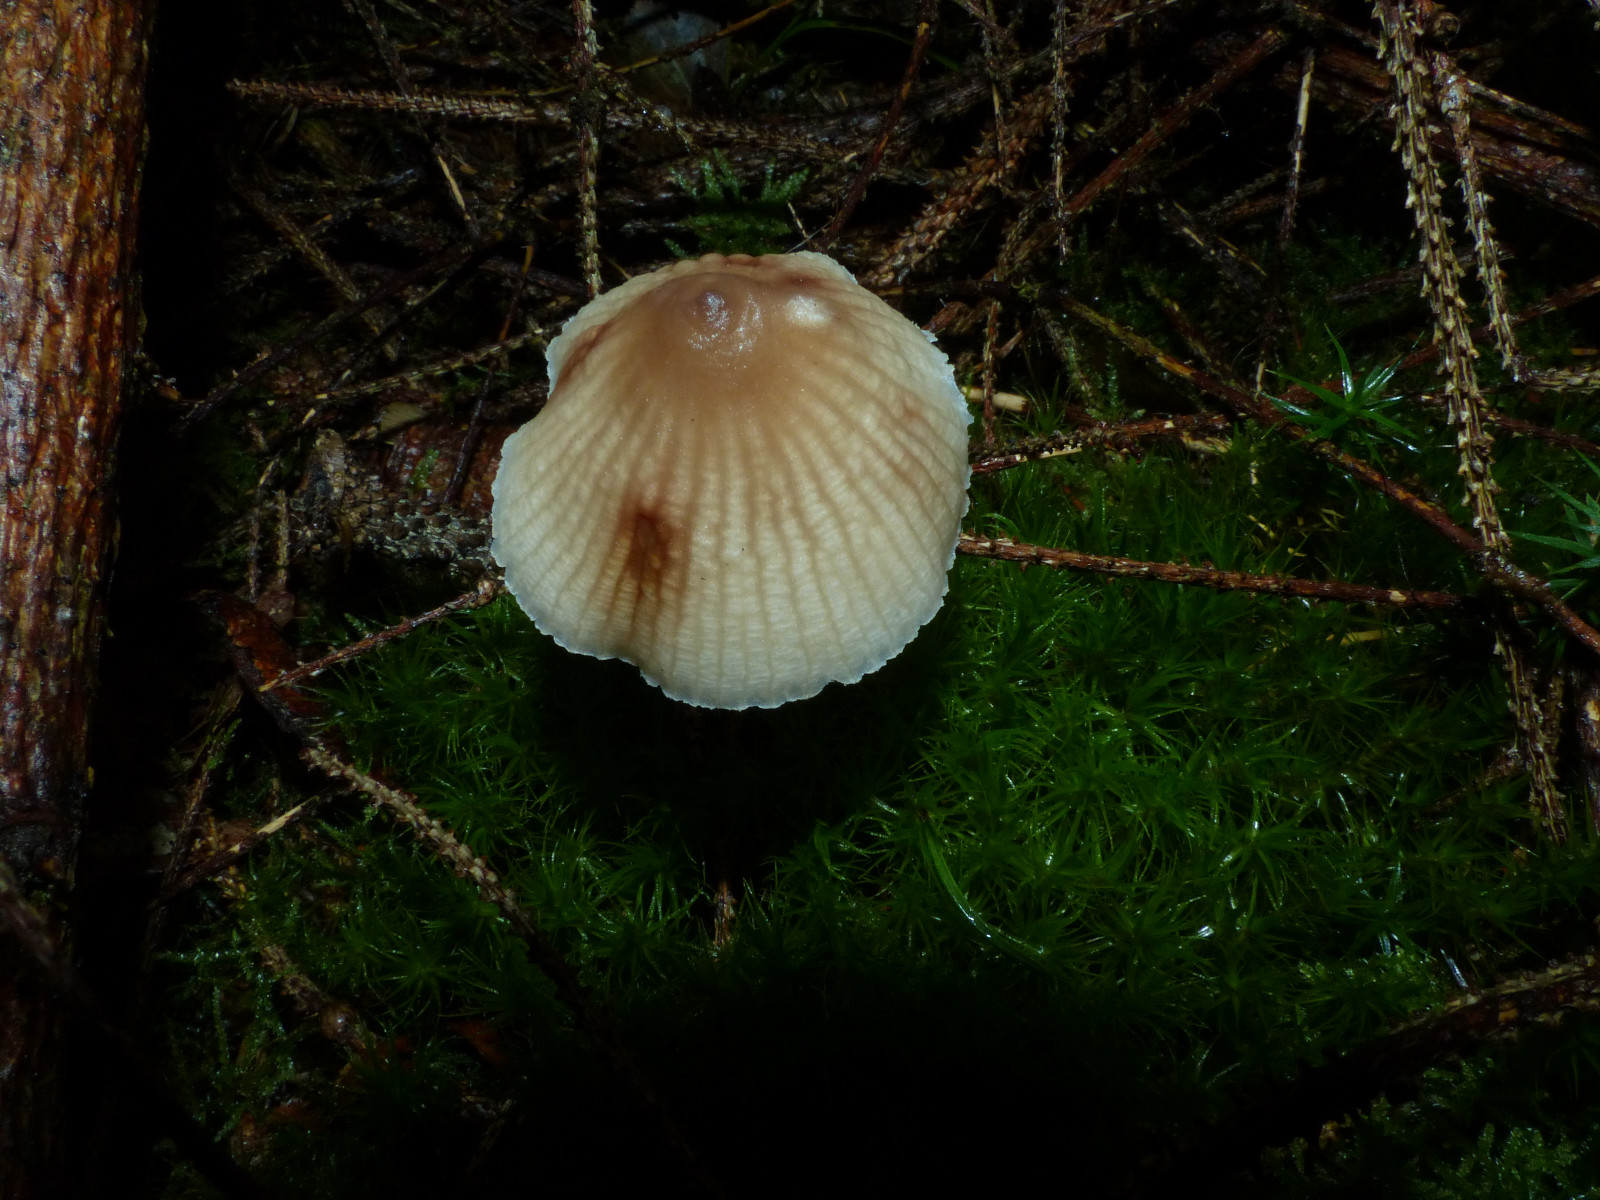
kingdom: Fungi
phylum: Basidiomycota
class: Agaricomycetes
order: Agaricales
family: Mycenaceae
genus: Mycena
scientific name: Mycena zephirus
